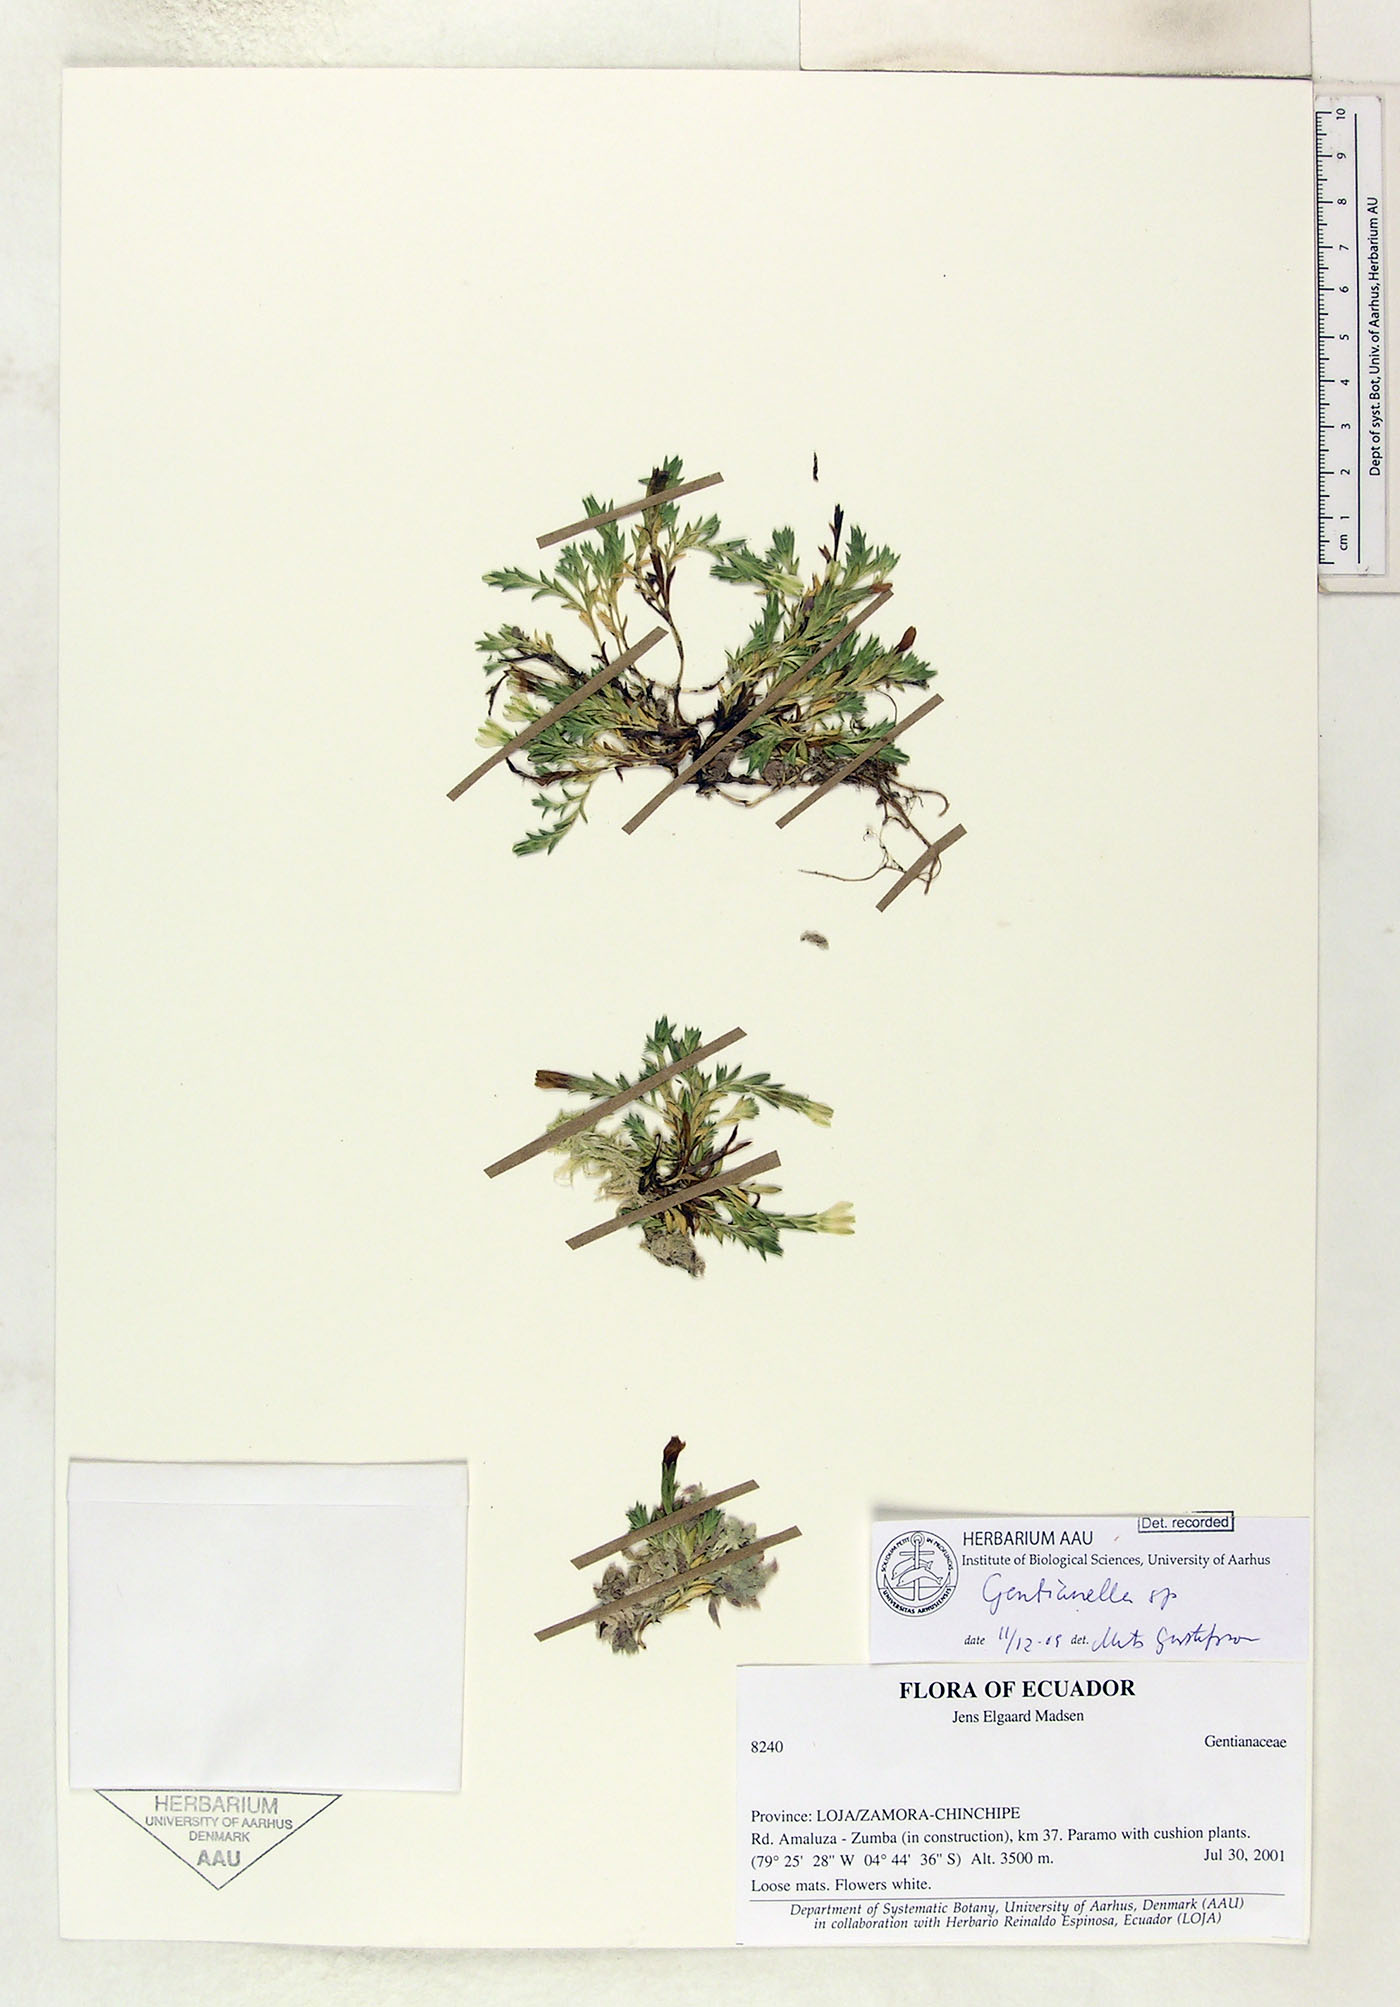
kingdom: Plantae
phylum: Tracheophyta
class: Magnoliopsida
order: Gentianales
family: Gentianaceae
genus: Gentianella
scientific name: Gentianella
